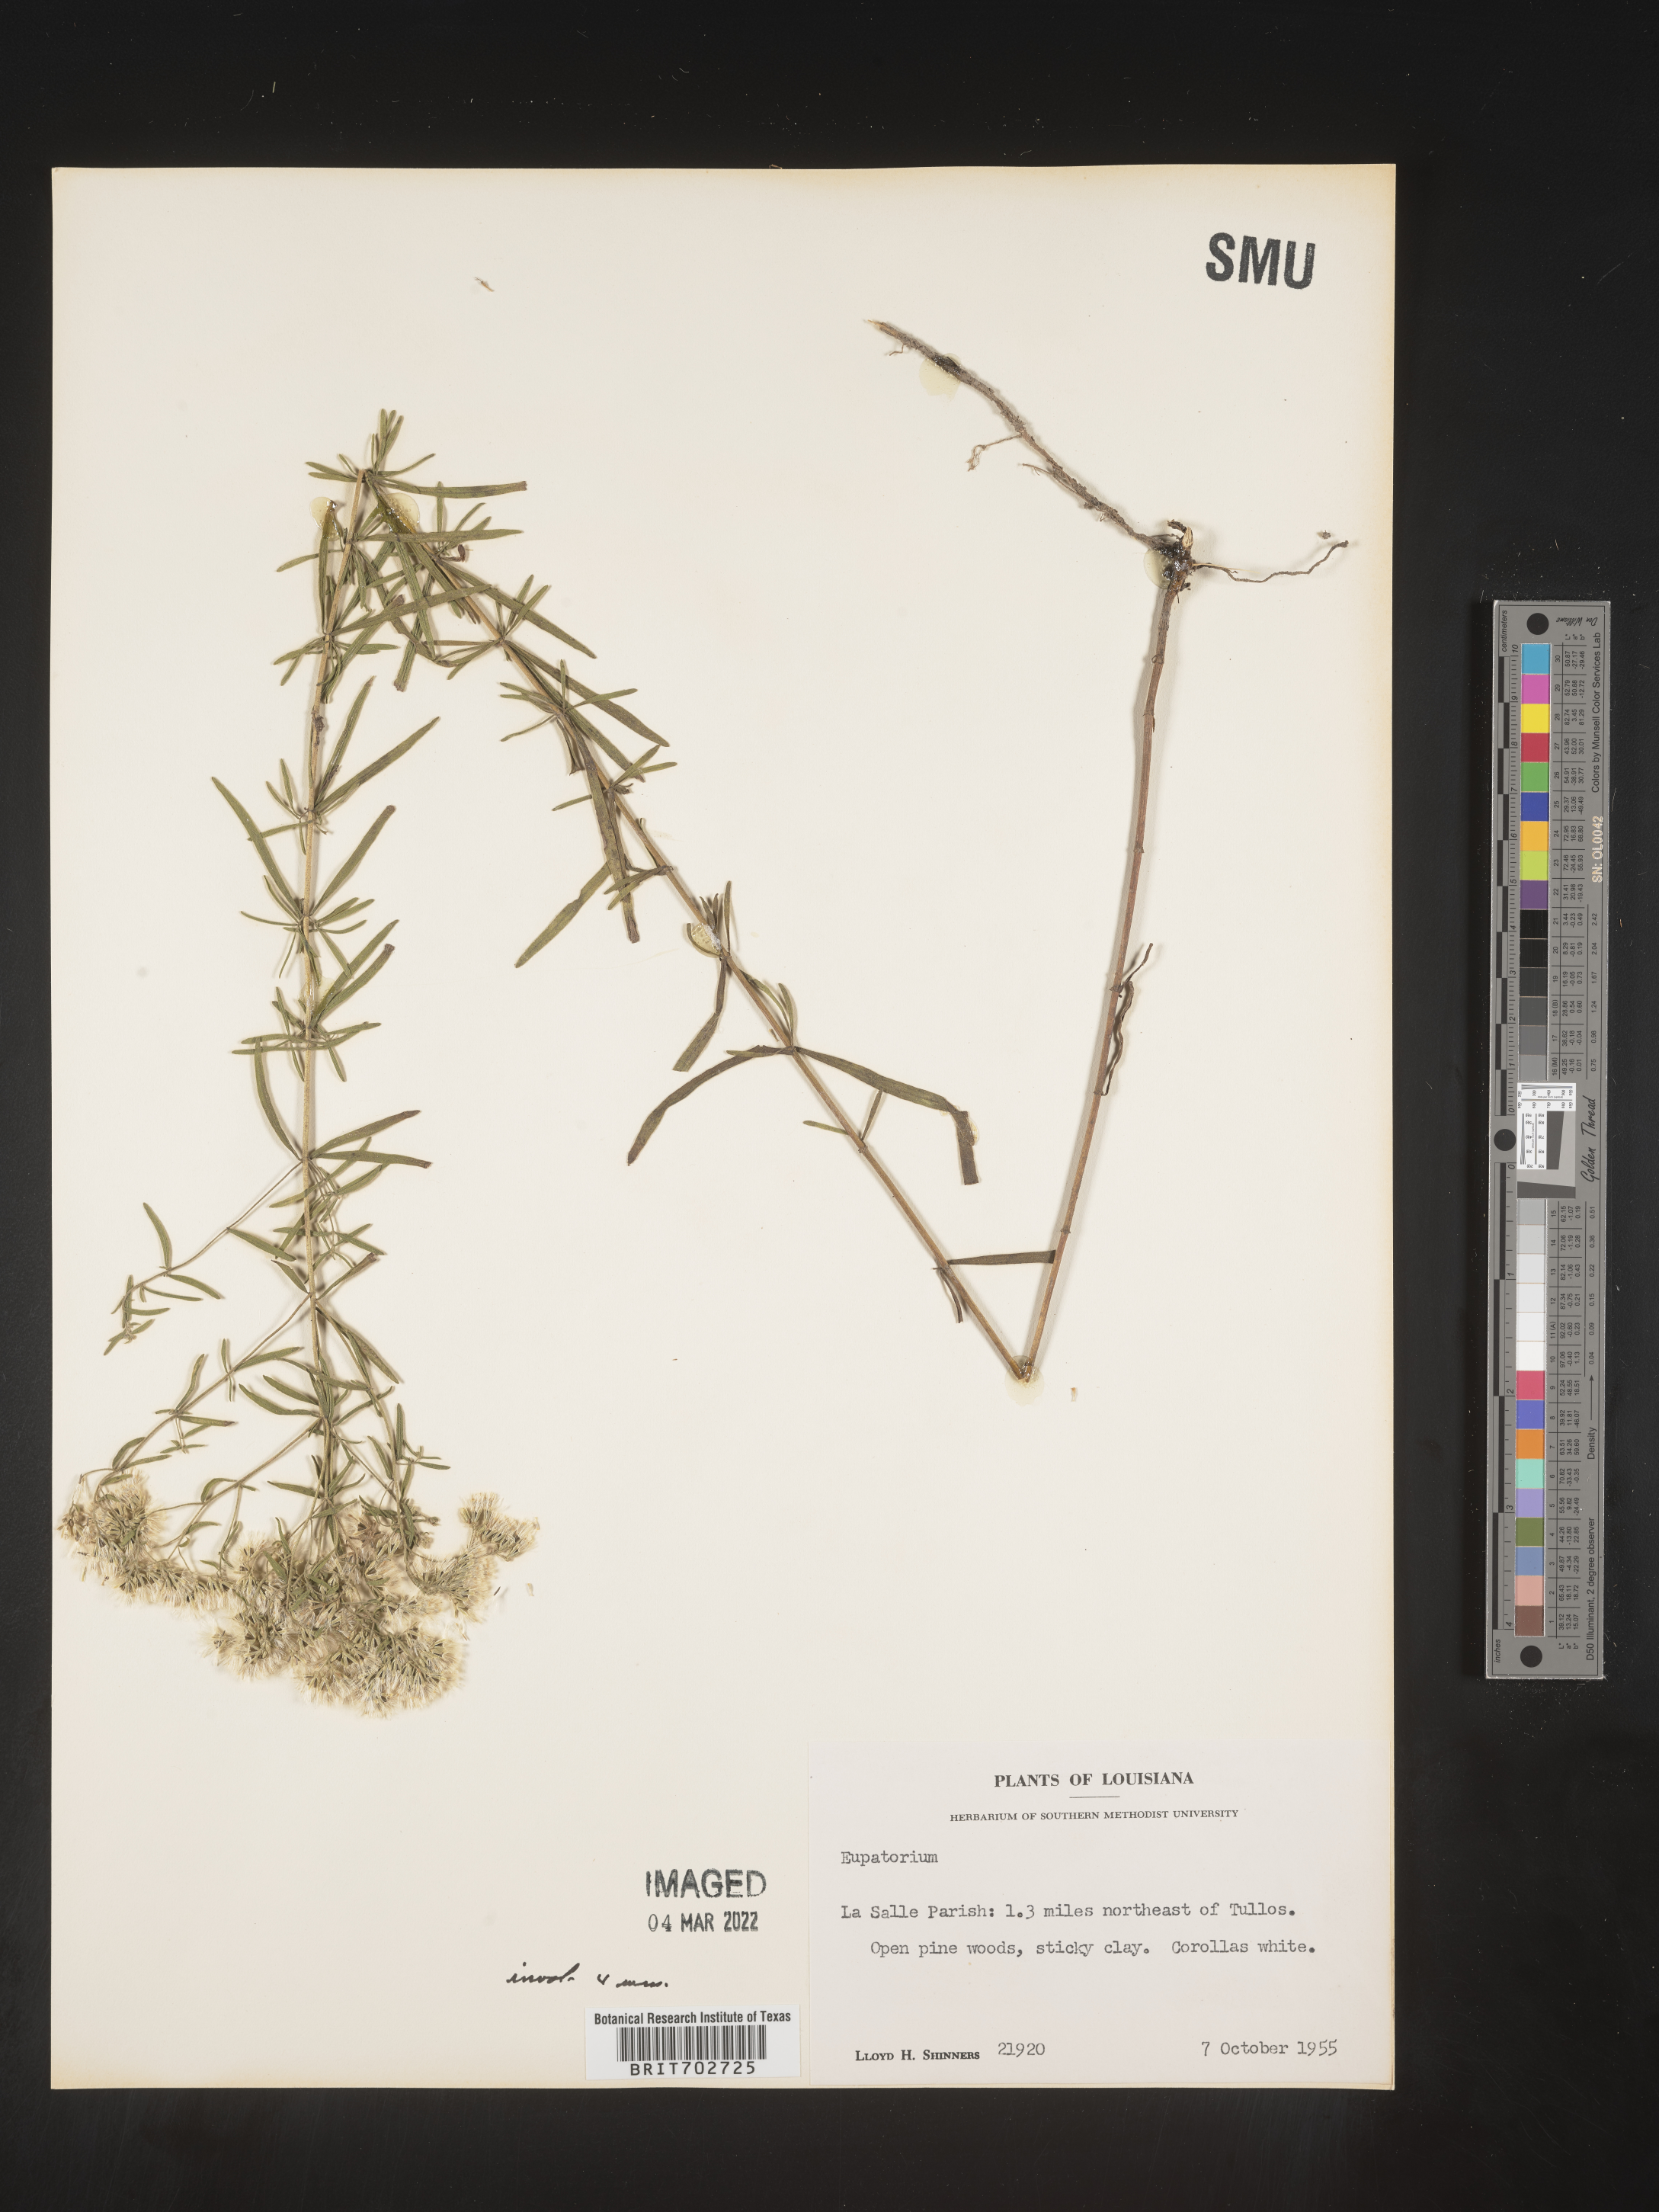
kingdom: Plantae
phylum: Tracheophyta
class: Magnoliopsida
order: Asterales
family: Asteraceae
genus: Eupatorium
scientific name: Eupatorium
